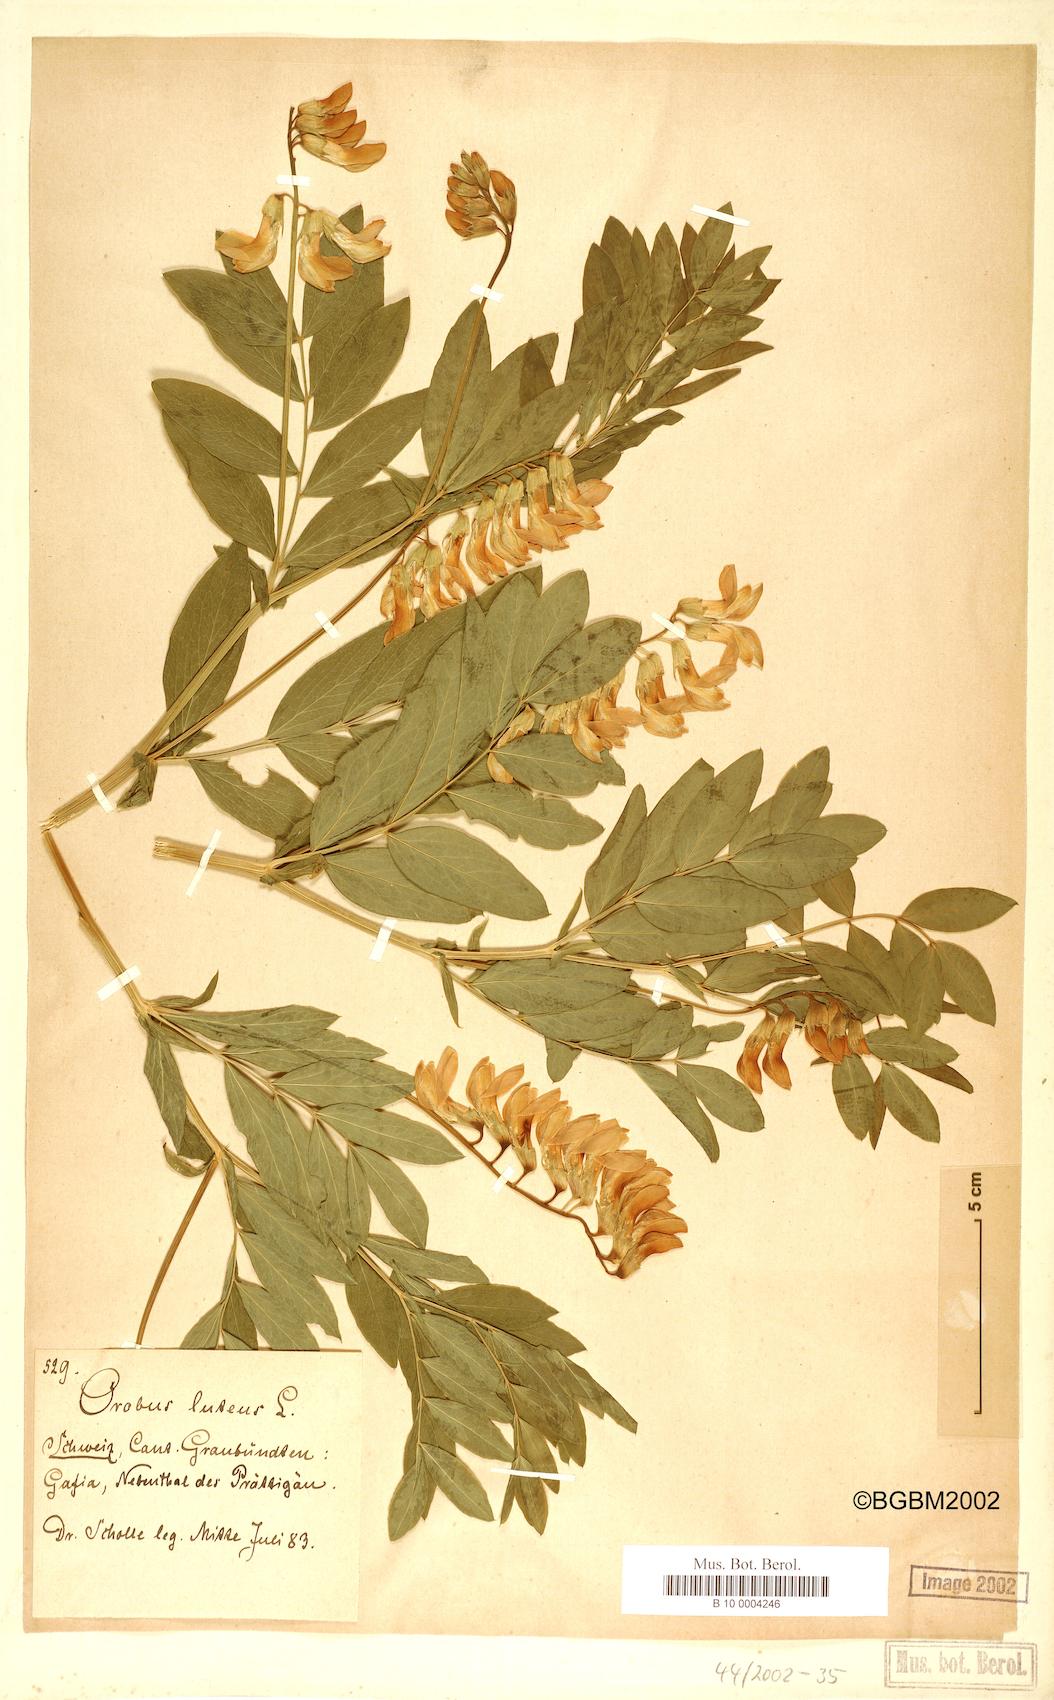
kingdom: Plantae
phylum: Tracheophyta
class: Magnoliopsida
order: Fabales
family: Fabaceae
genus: Lathyrus
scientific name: Lathyrus gmelinii
